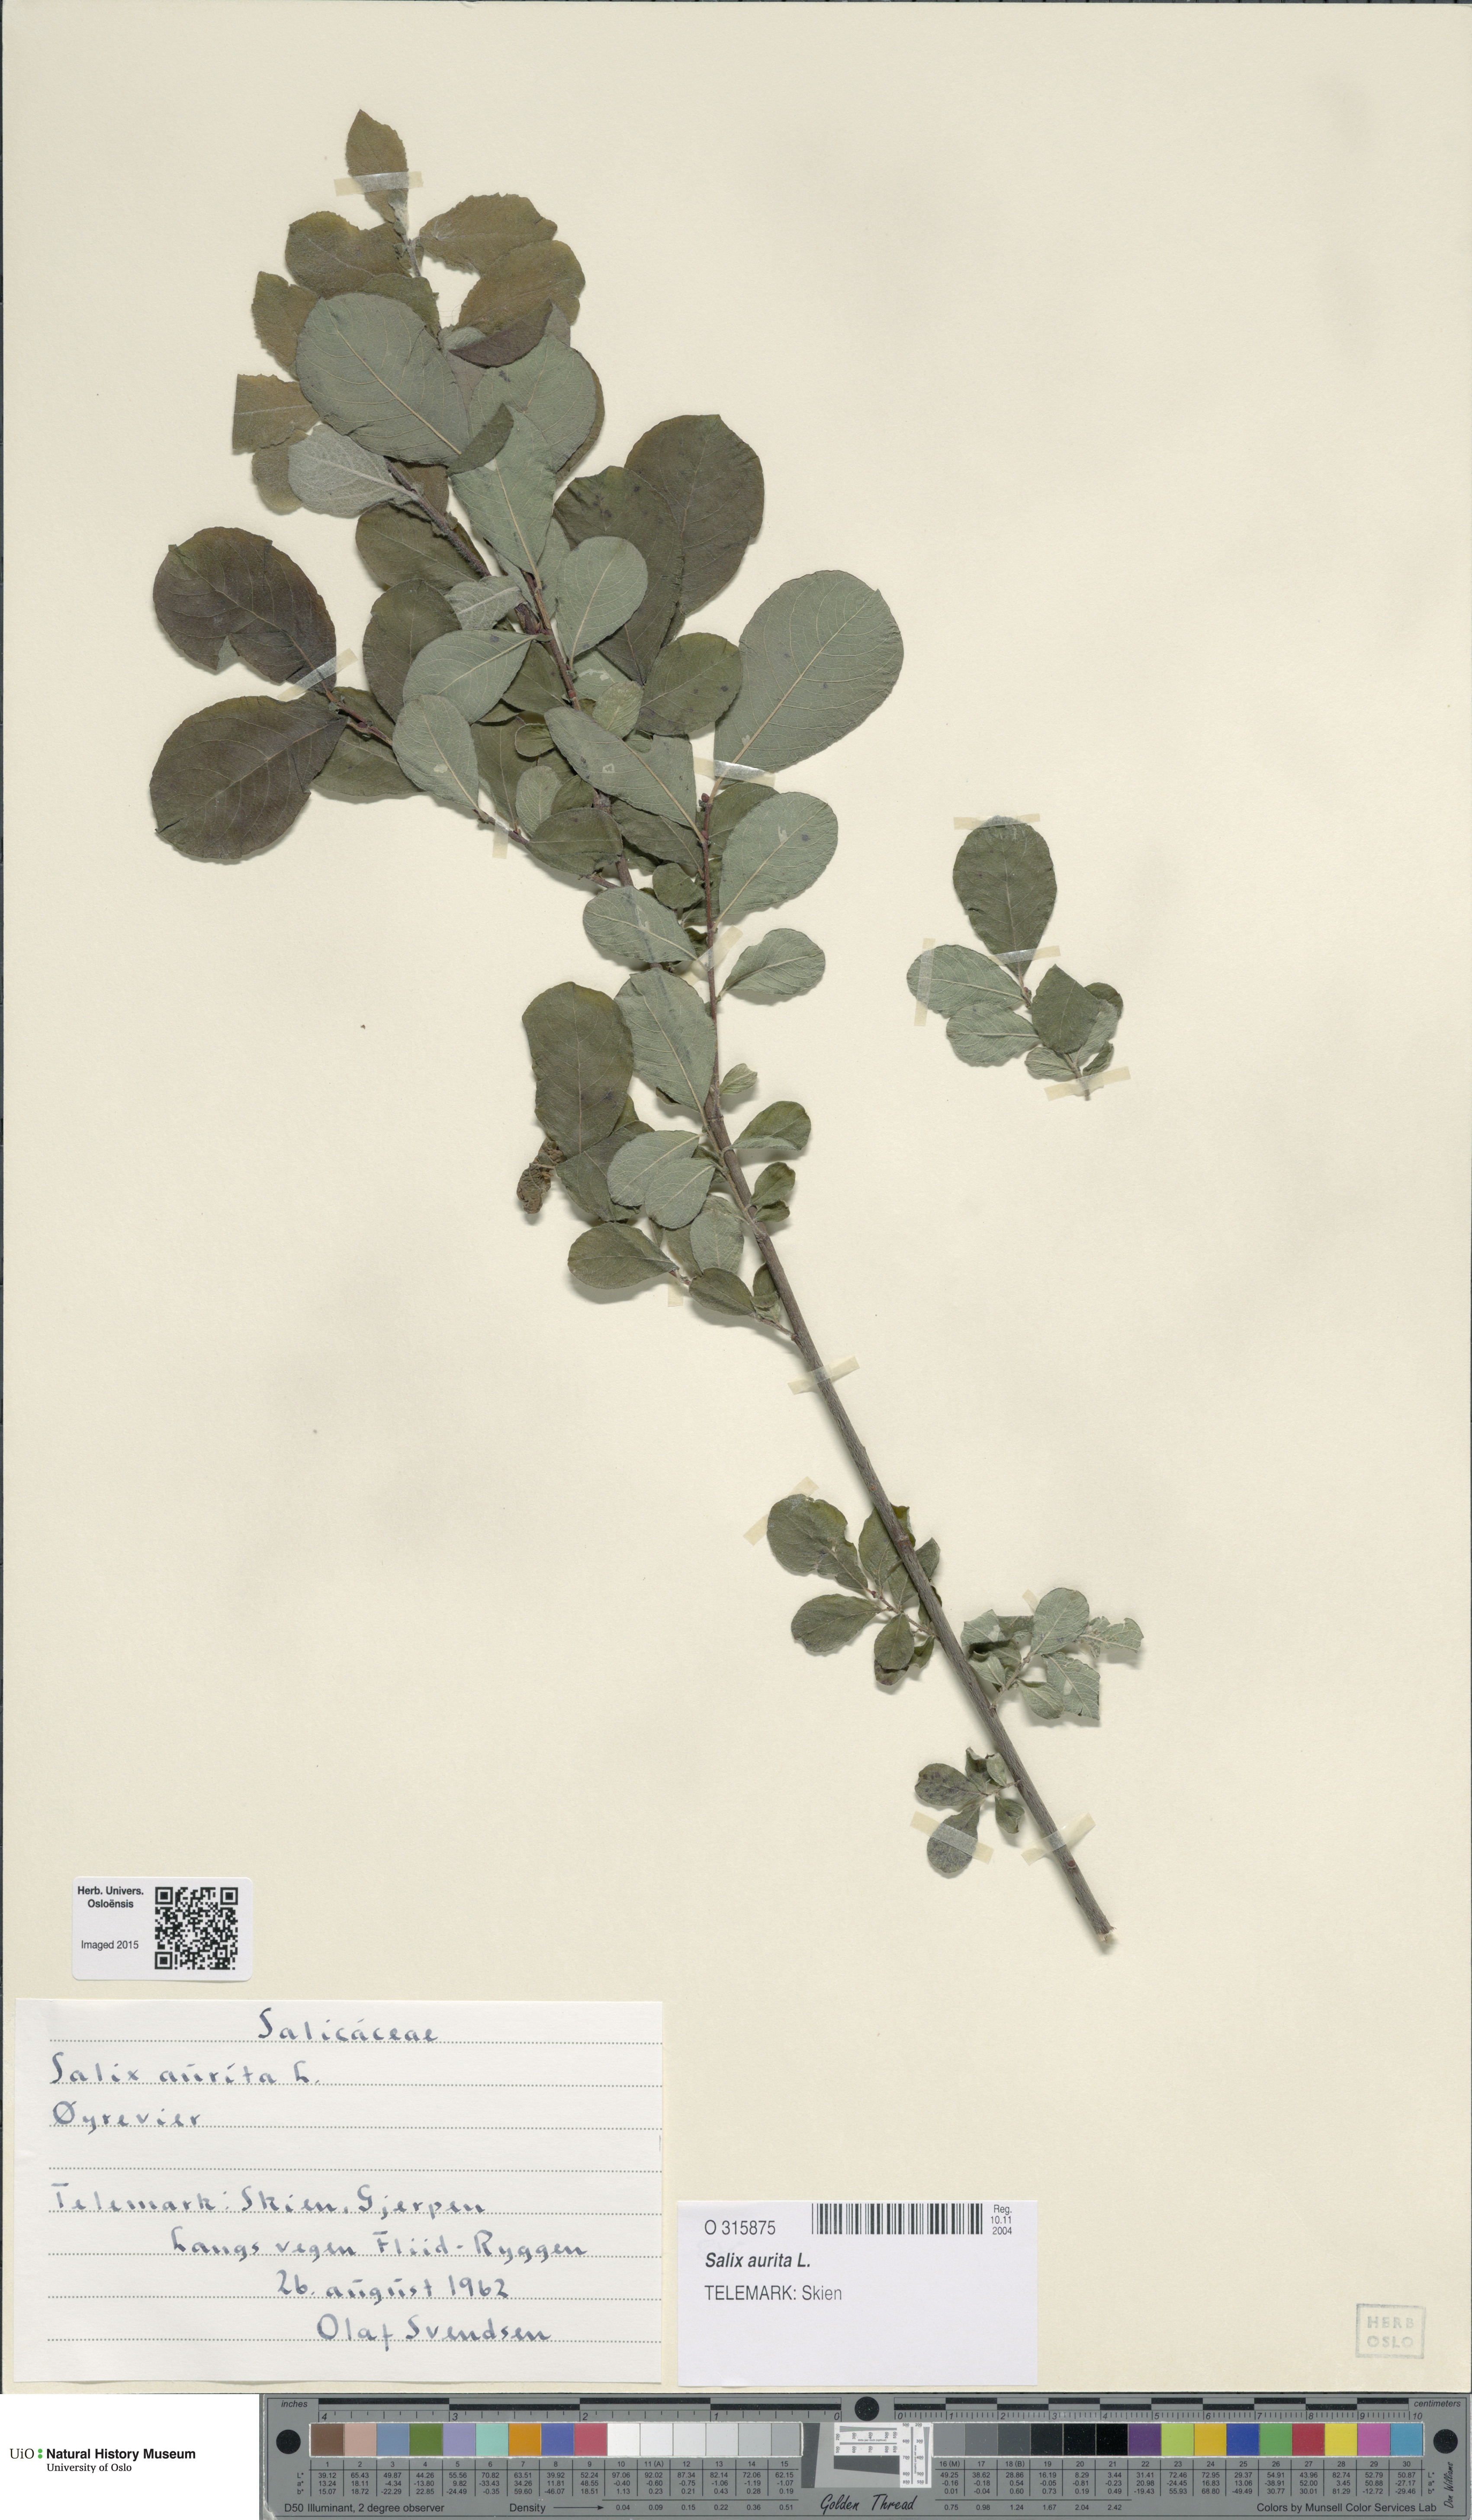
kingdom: Plantae
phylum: Tracheophyta
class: Magnoliopsida
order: Malpighiales
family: Salicaceae
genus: Salix
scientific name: Salix aurita
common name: Eared willow
